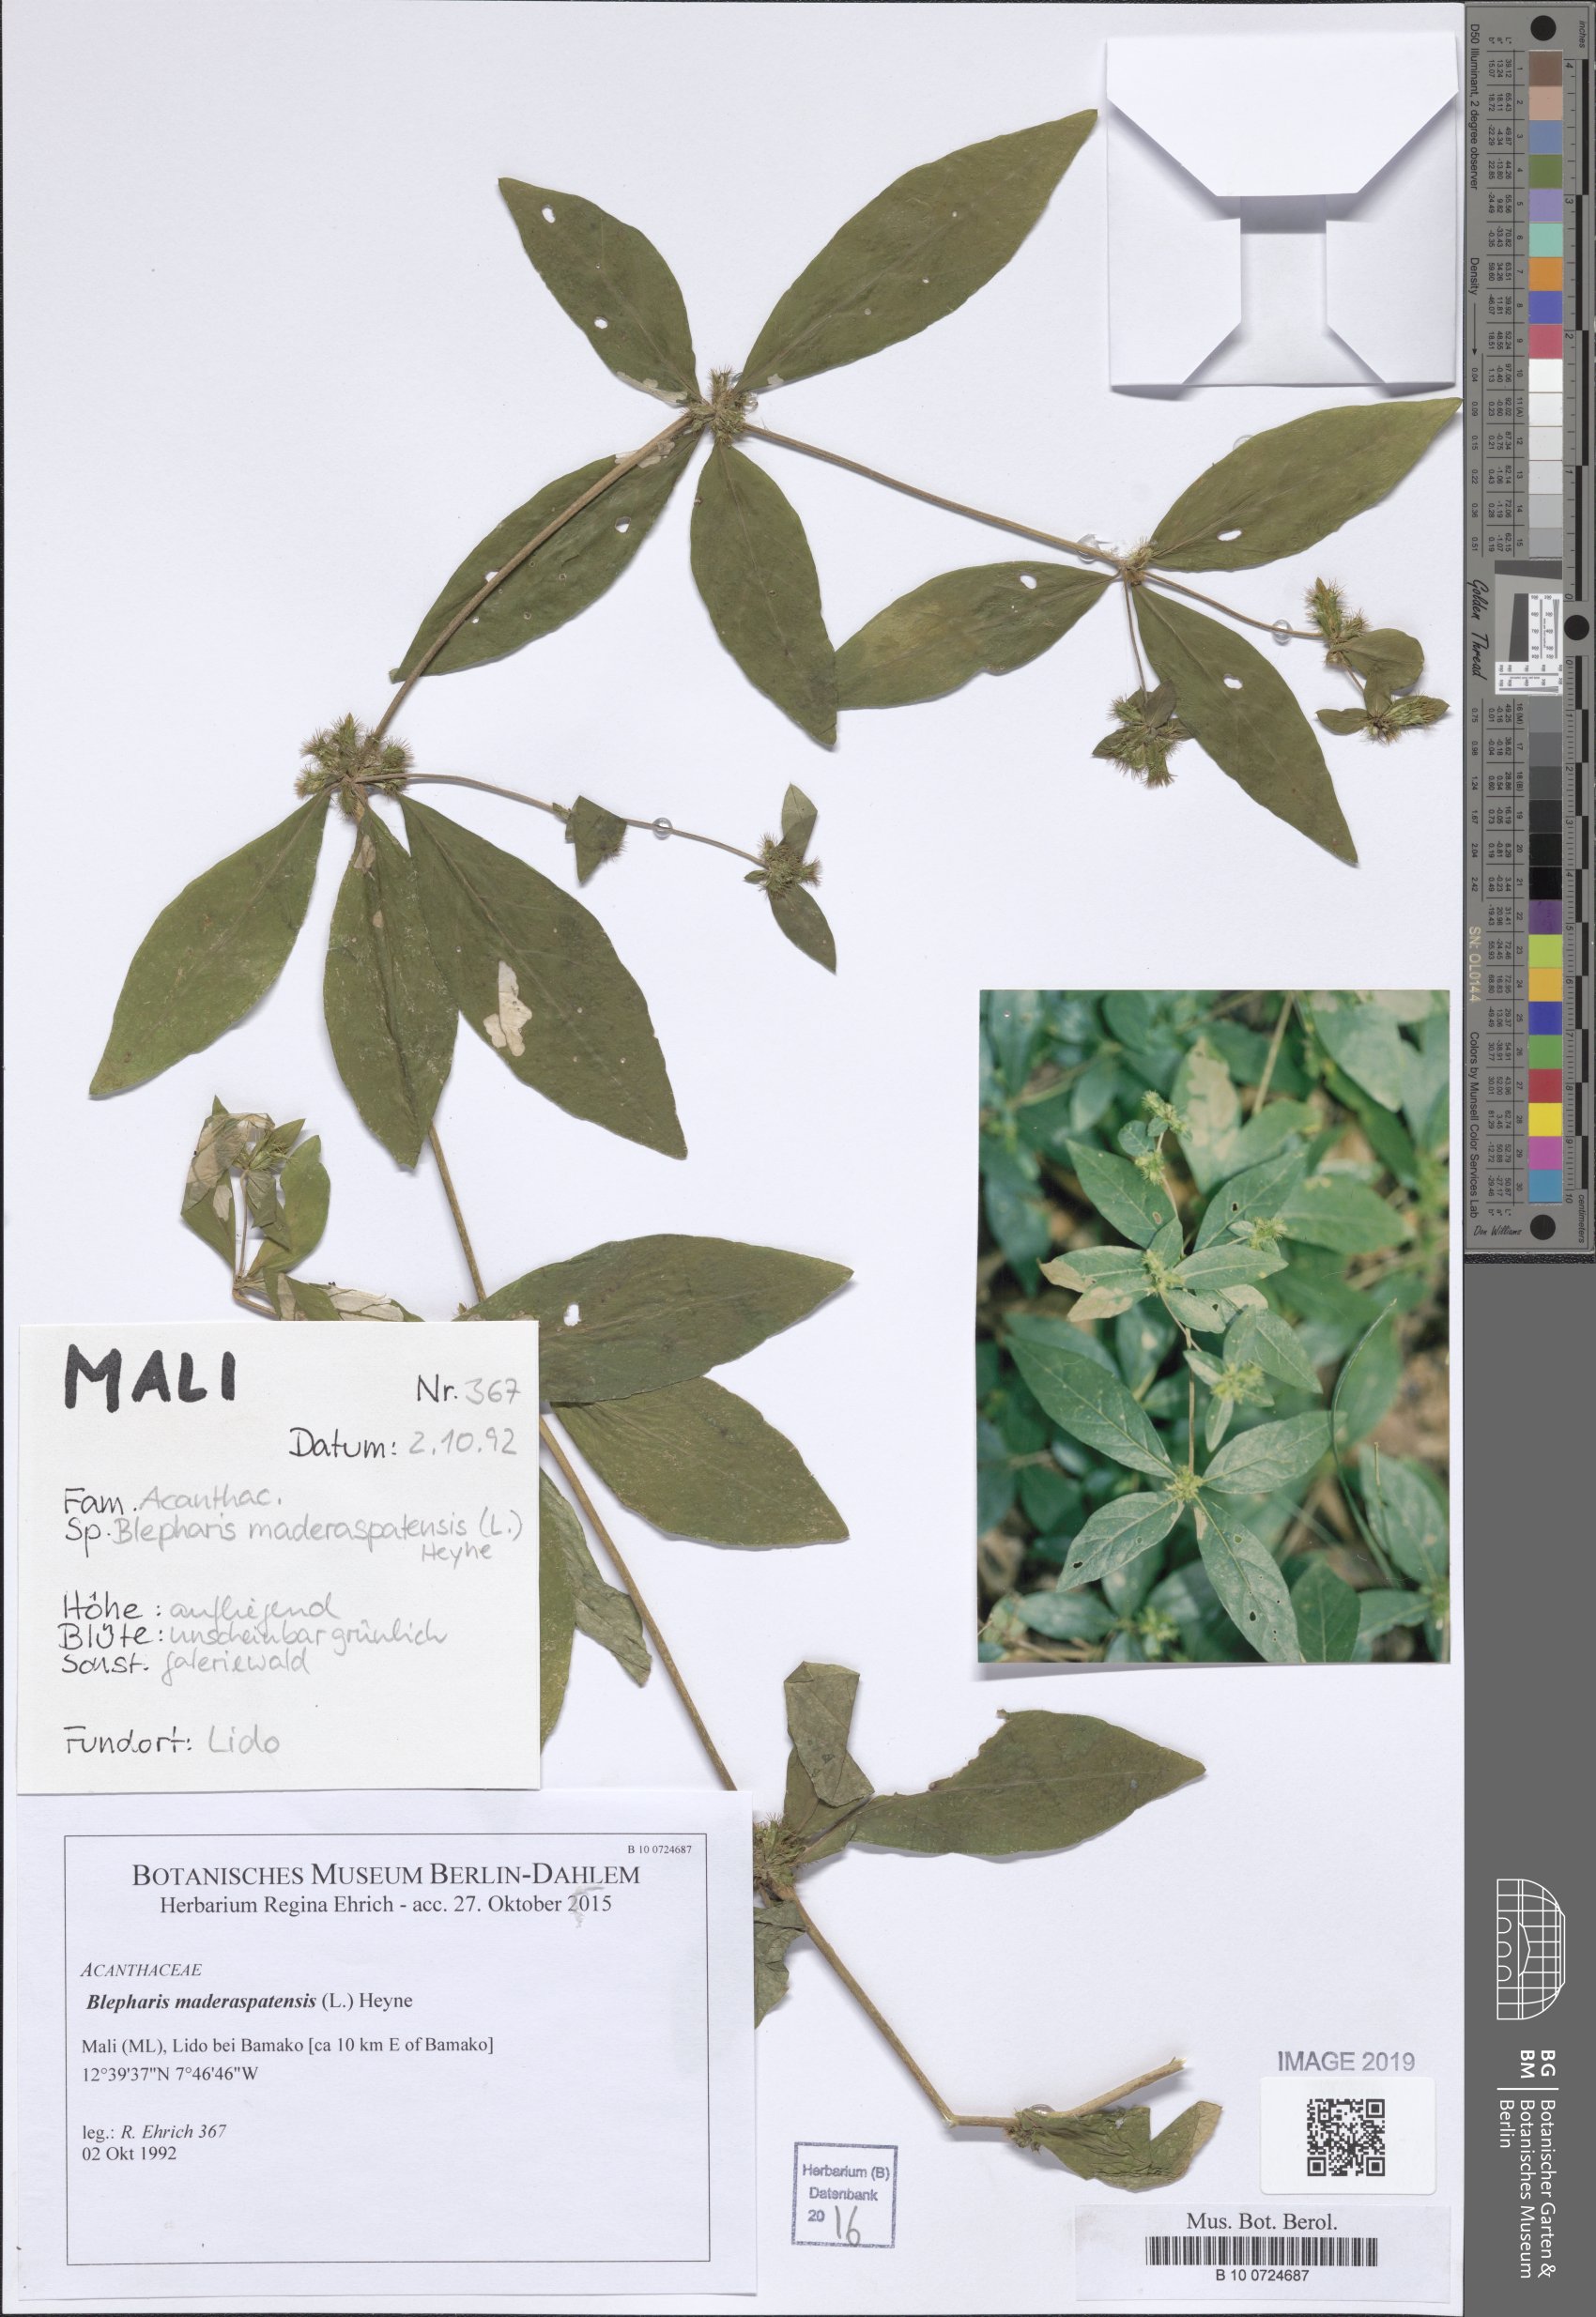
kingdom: Plantae
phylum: Tracheophyta
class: Magnoliopsida
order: Lamiales
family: Acanthaceae
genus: Blepharis
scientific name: Blepharis maderaspatensis
